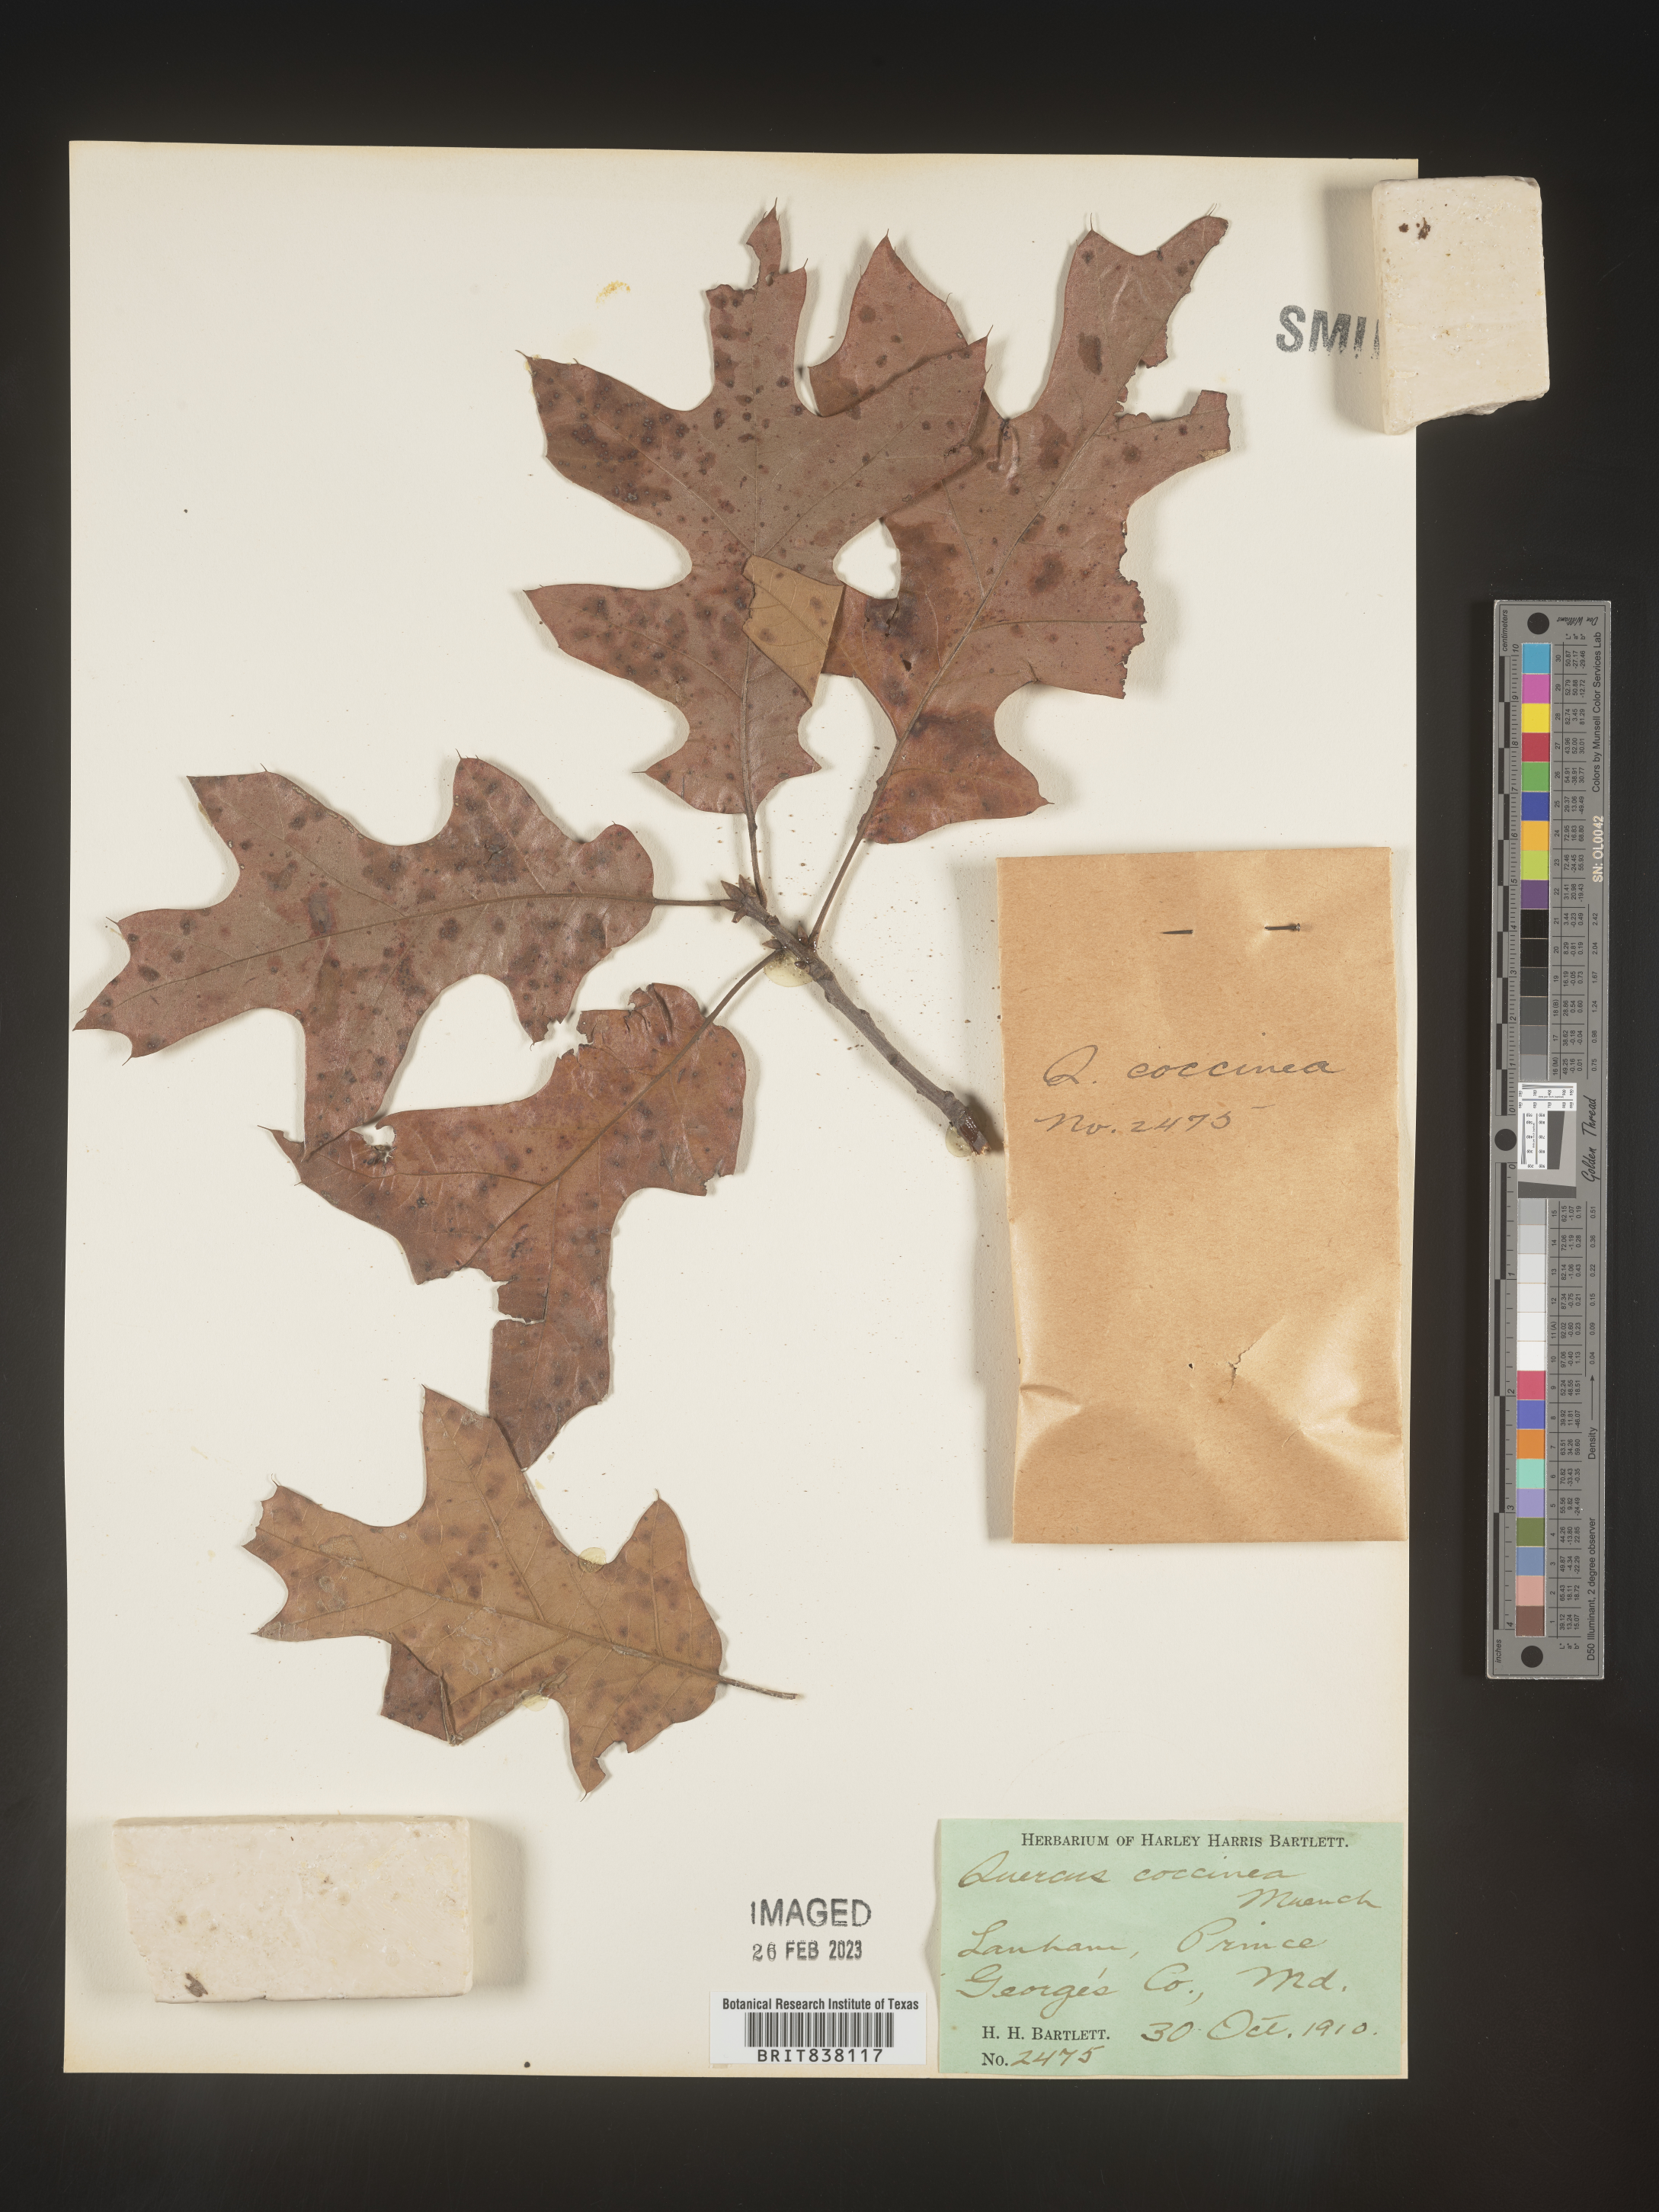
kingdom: Plantae
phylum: Tracheophyta
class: Magnoliopsida
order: Fagales
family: Fagaceae
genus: Quercus
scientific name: Quercus coccinea
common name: Scarlet oak
